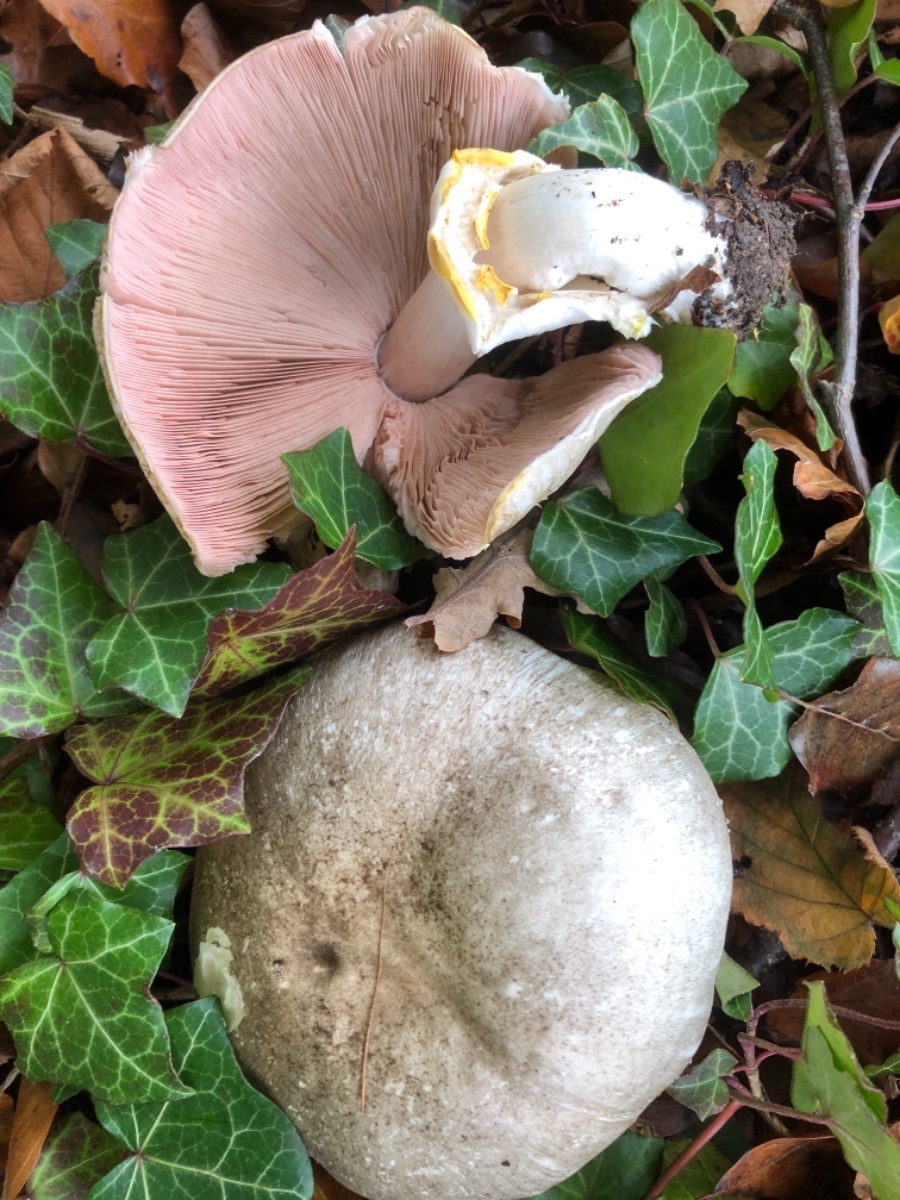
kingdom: Fungi
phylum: Basidiomycota
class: Agaricomycetes
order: Agaricales
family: Agaricaceae
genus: Agaricus
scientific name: Agaricus moelleri
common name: perlehøne-champignon
